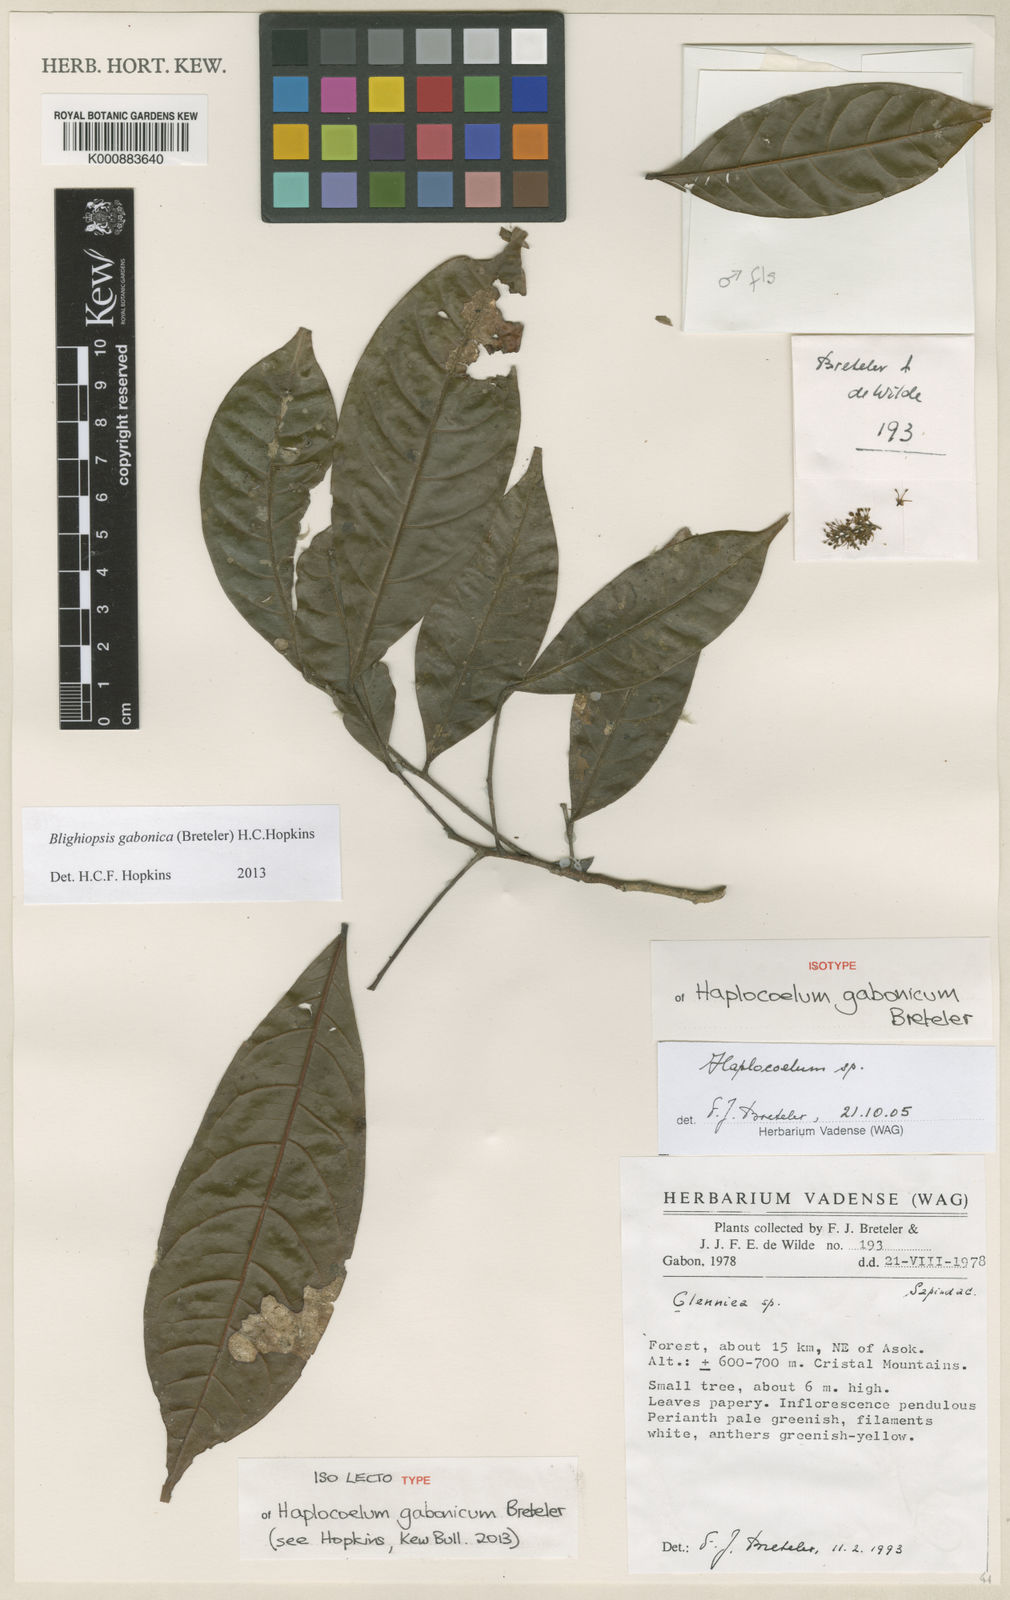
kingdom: Plantae
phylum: Tracheophyta
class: Magnoliopsida
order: Sapindales
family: Sapindaceae
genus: Blighiopsis
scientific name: Blighiopsis gabonica
